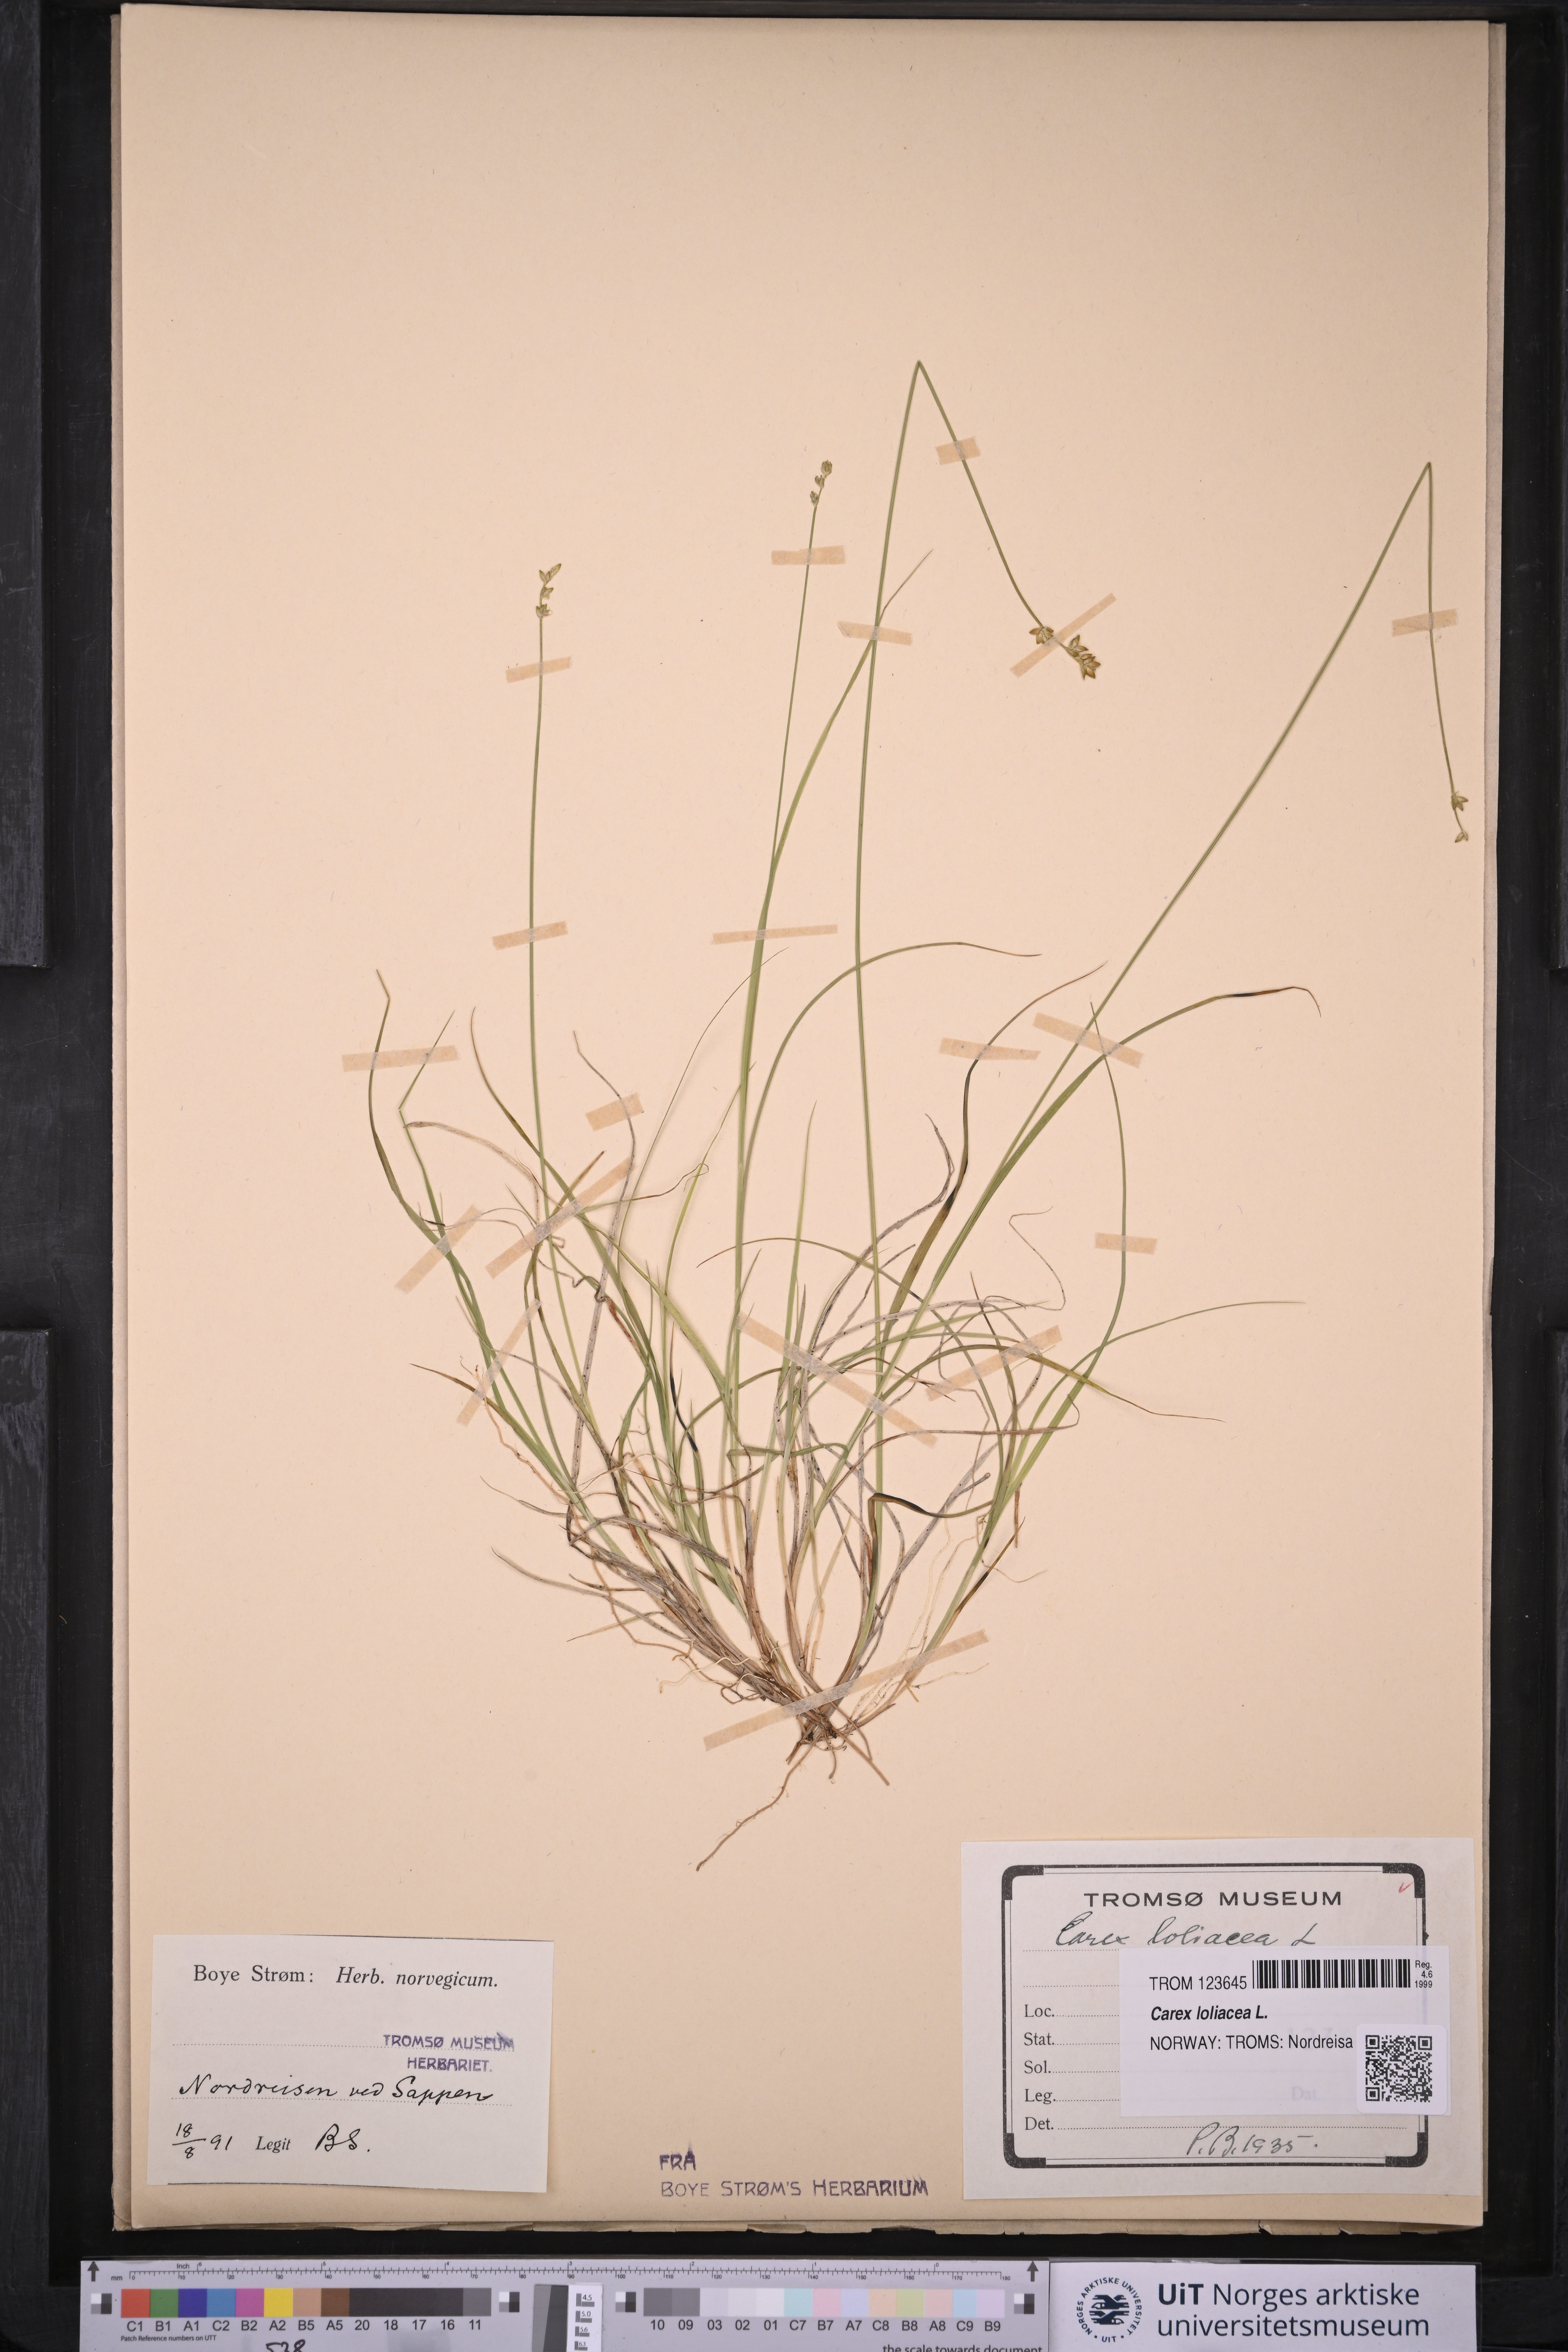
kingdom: Plantae
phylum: Tracheophyta
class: Liliopsida
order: Poales
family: Cyperaceae
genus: Carex
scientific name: Carex loliacea
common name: Ryegrass sedge
